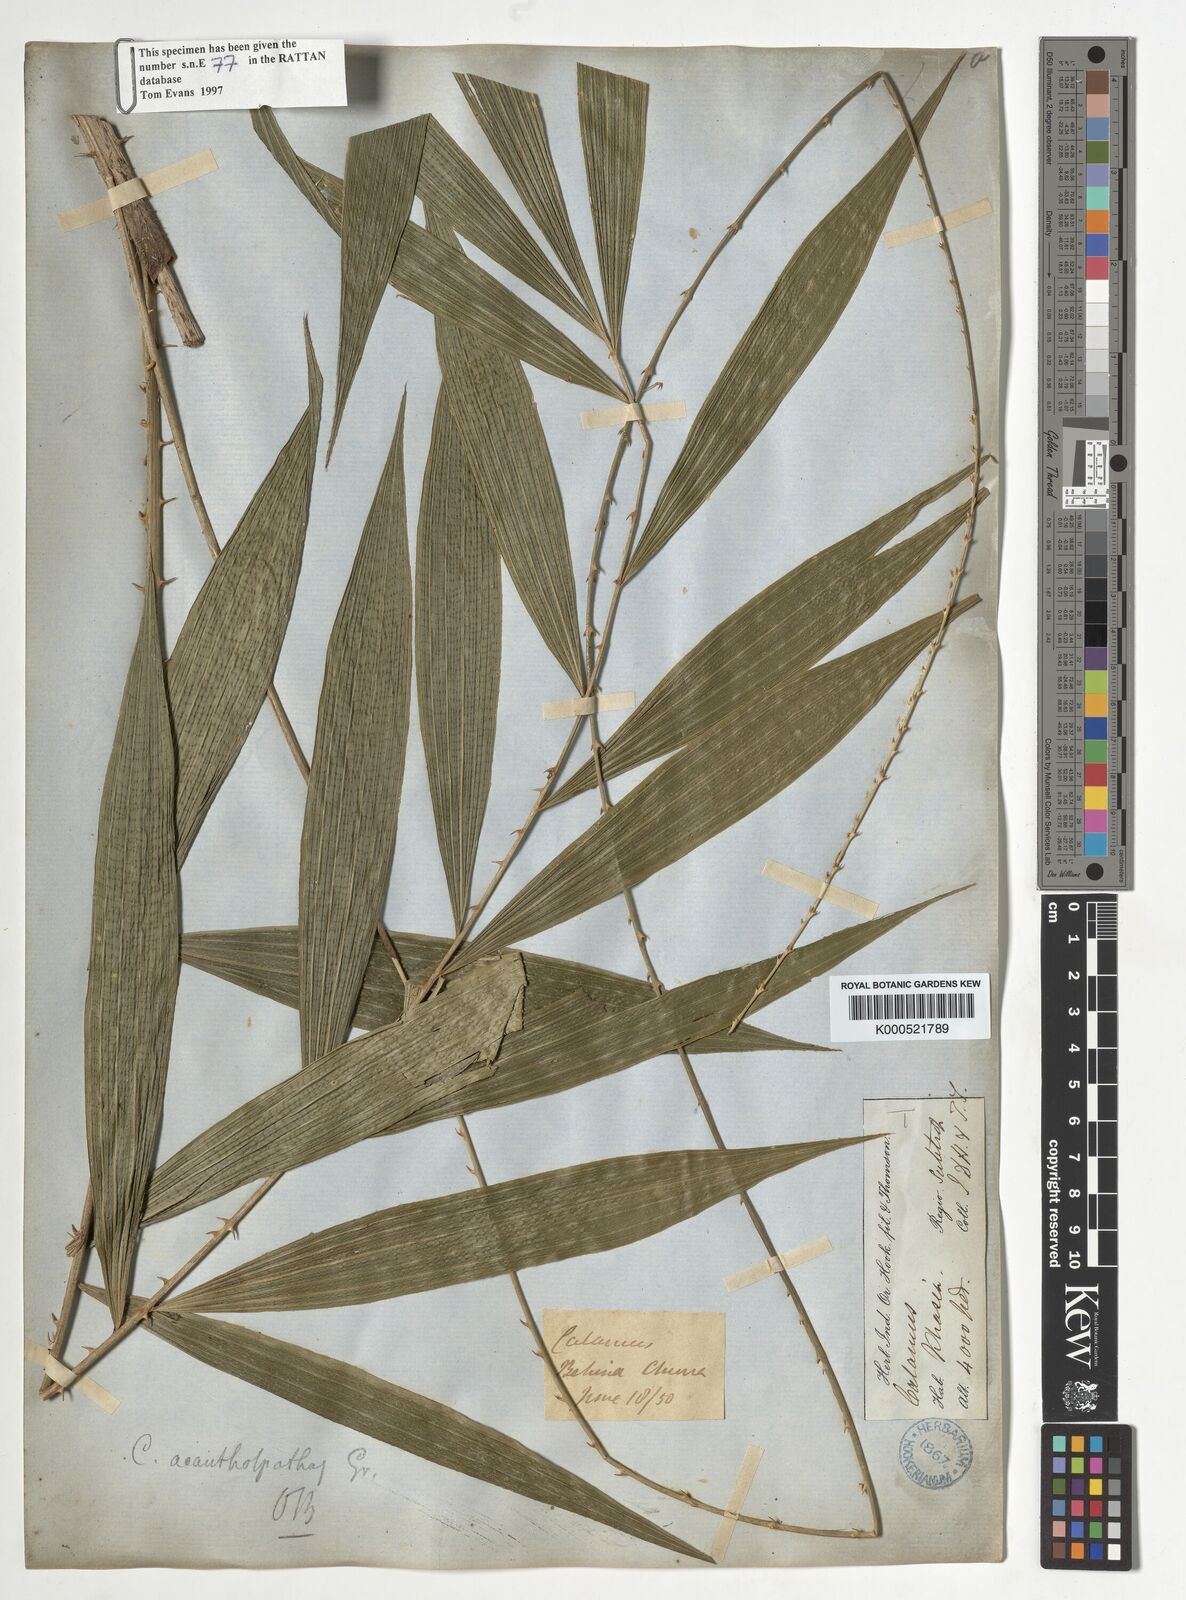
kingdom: Plantae
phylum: Tracheophyta
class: Liliopsida
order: Arecales
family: Arecaceae
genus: Calamus
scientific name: Calamus acanthospathus
